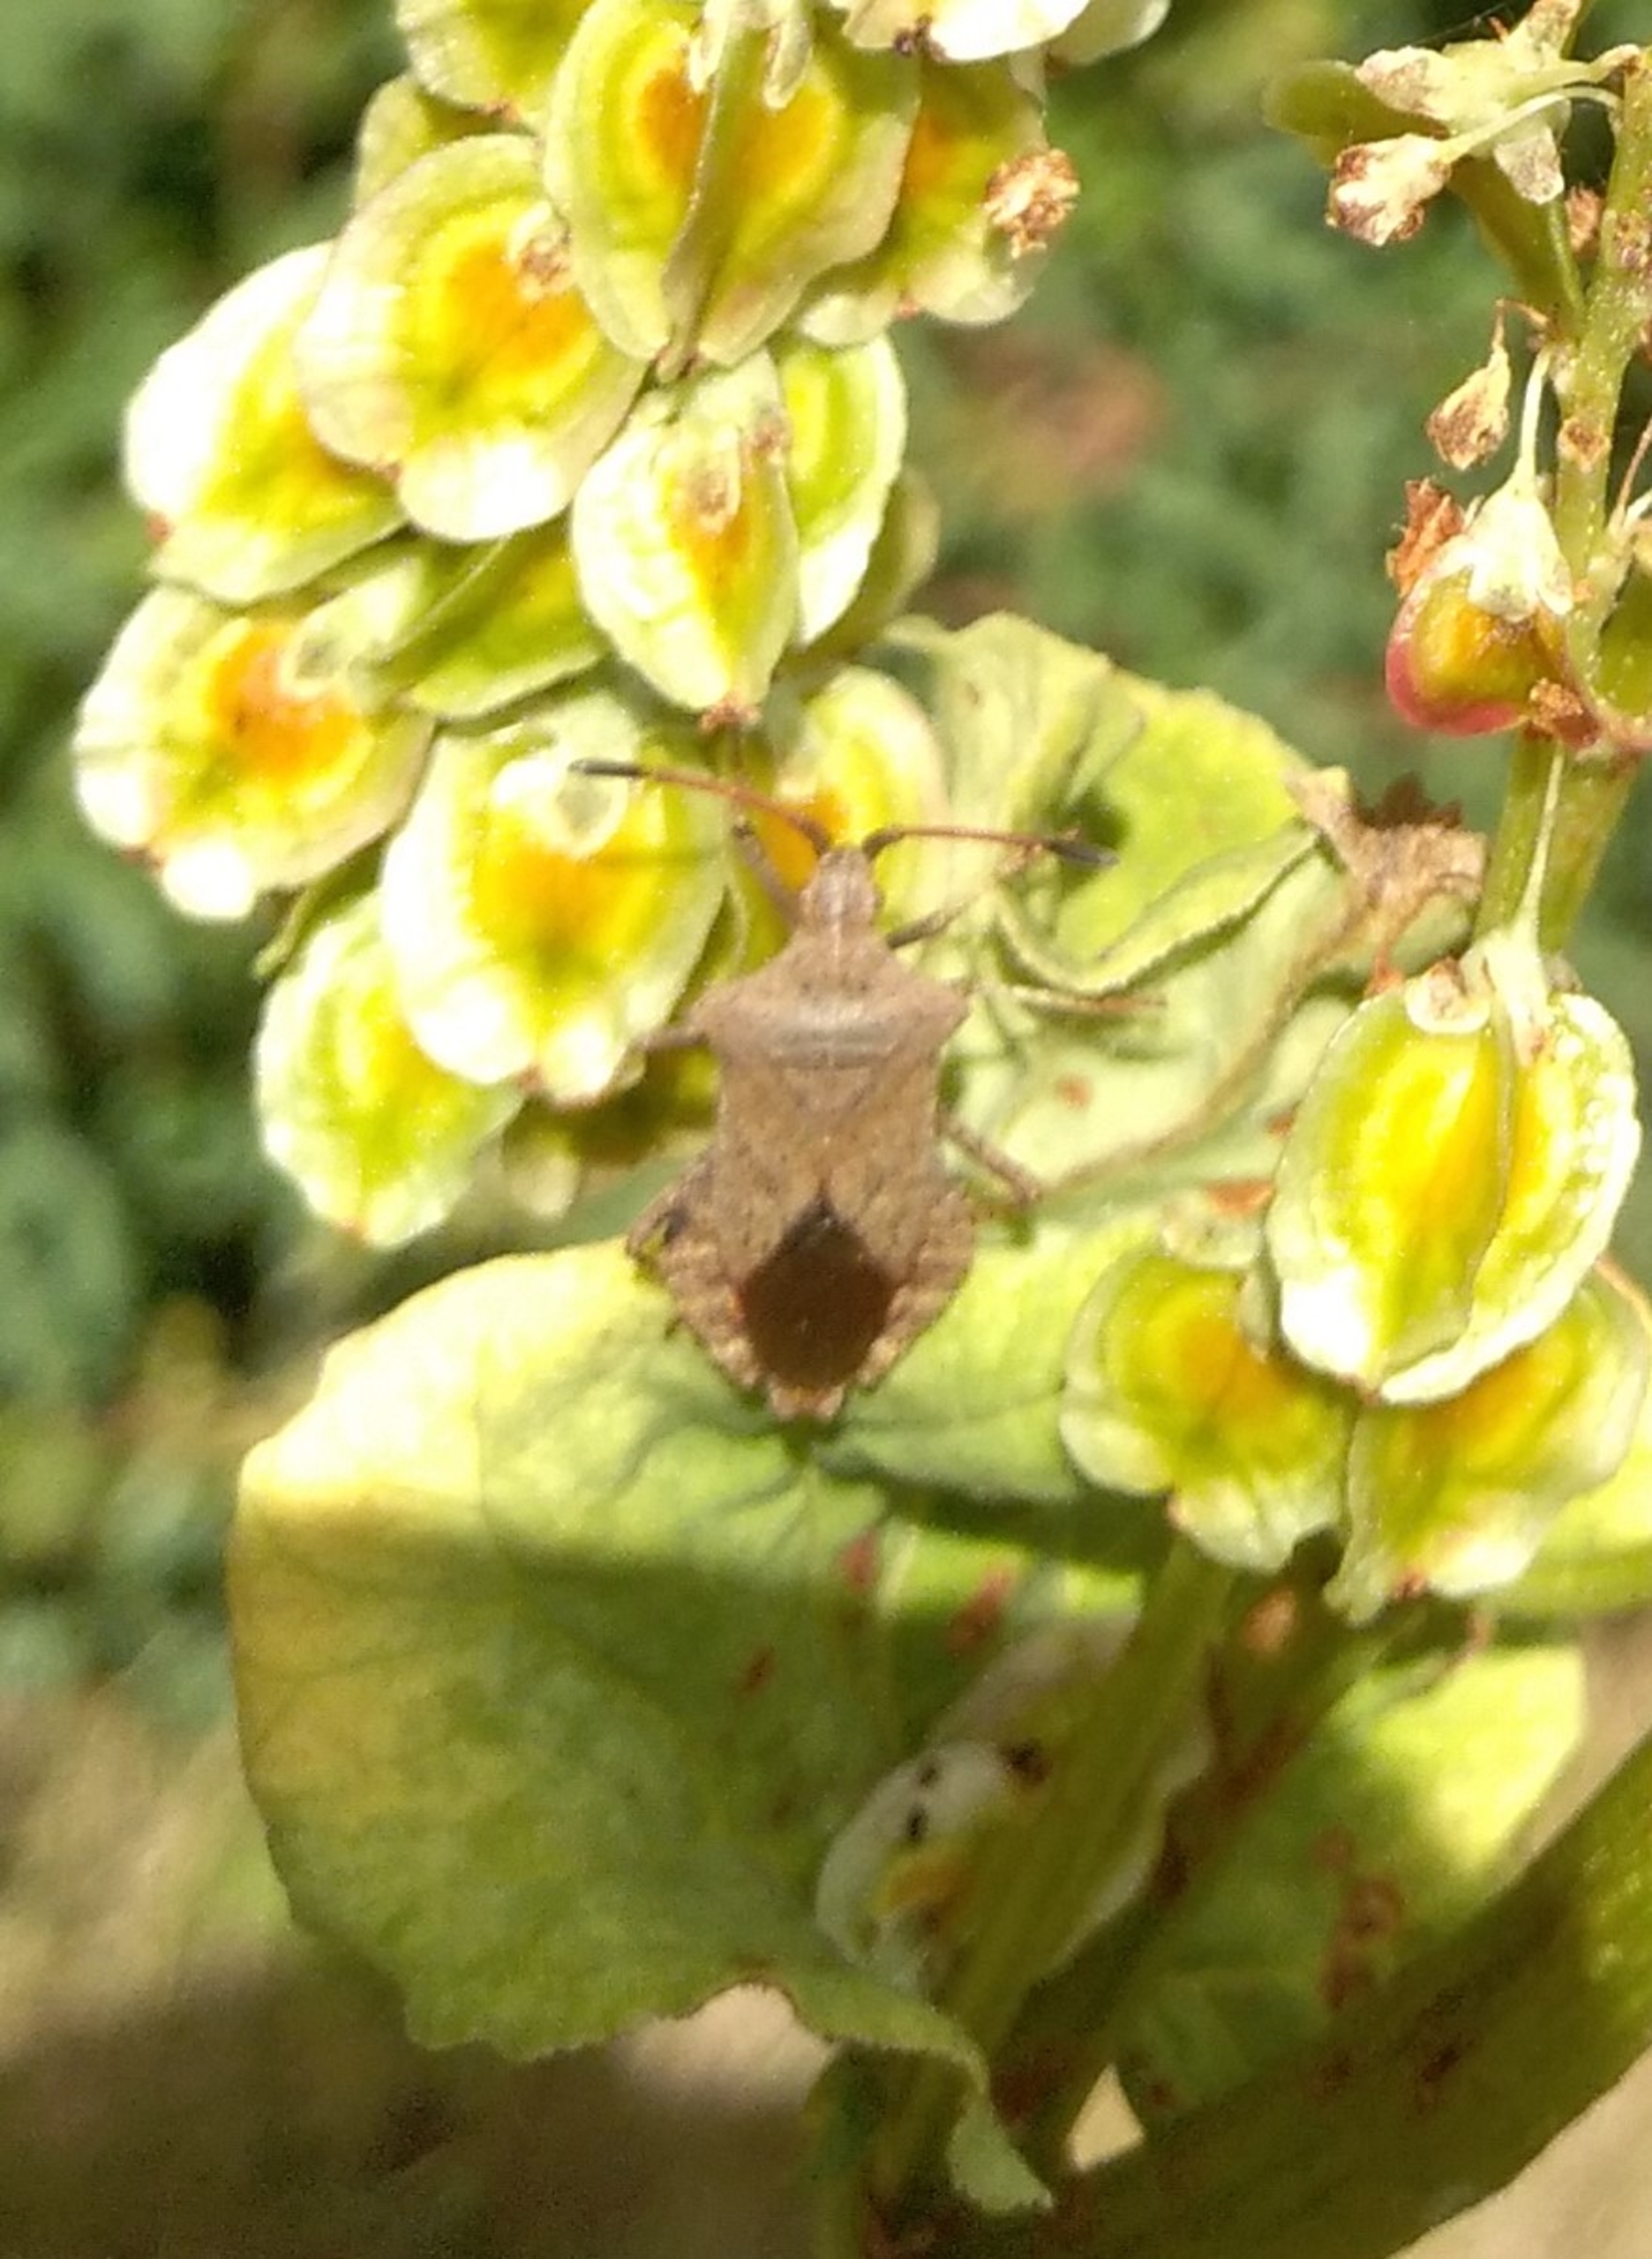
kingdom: Animalia
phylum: Arthropoda
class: Insecta
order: Hemiptera
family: Coreidae
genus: Coreus
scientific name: Coreus marginatus
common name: Skræppetæge
